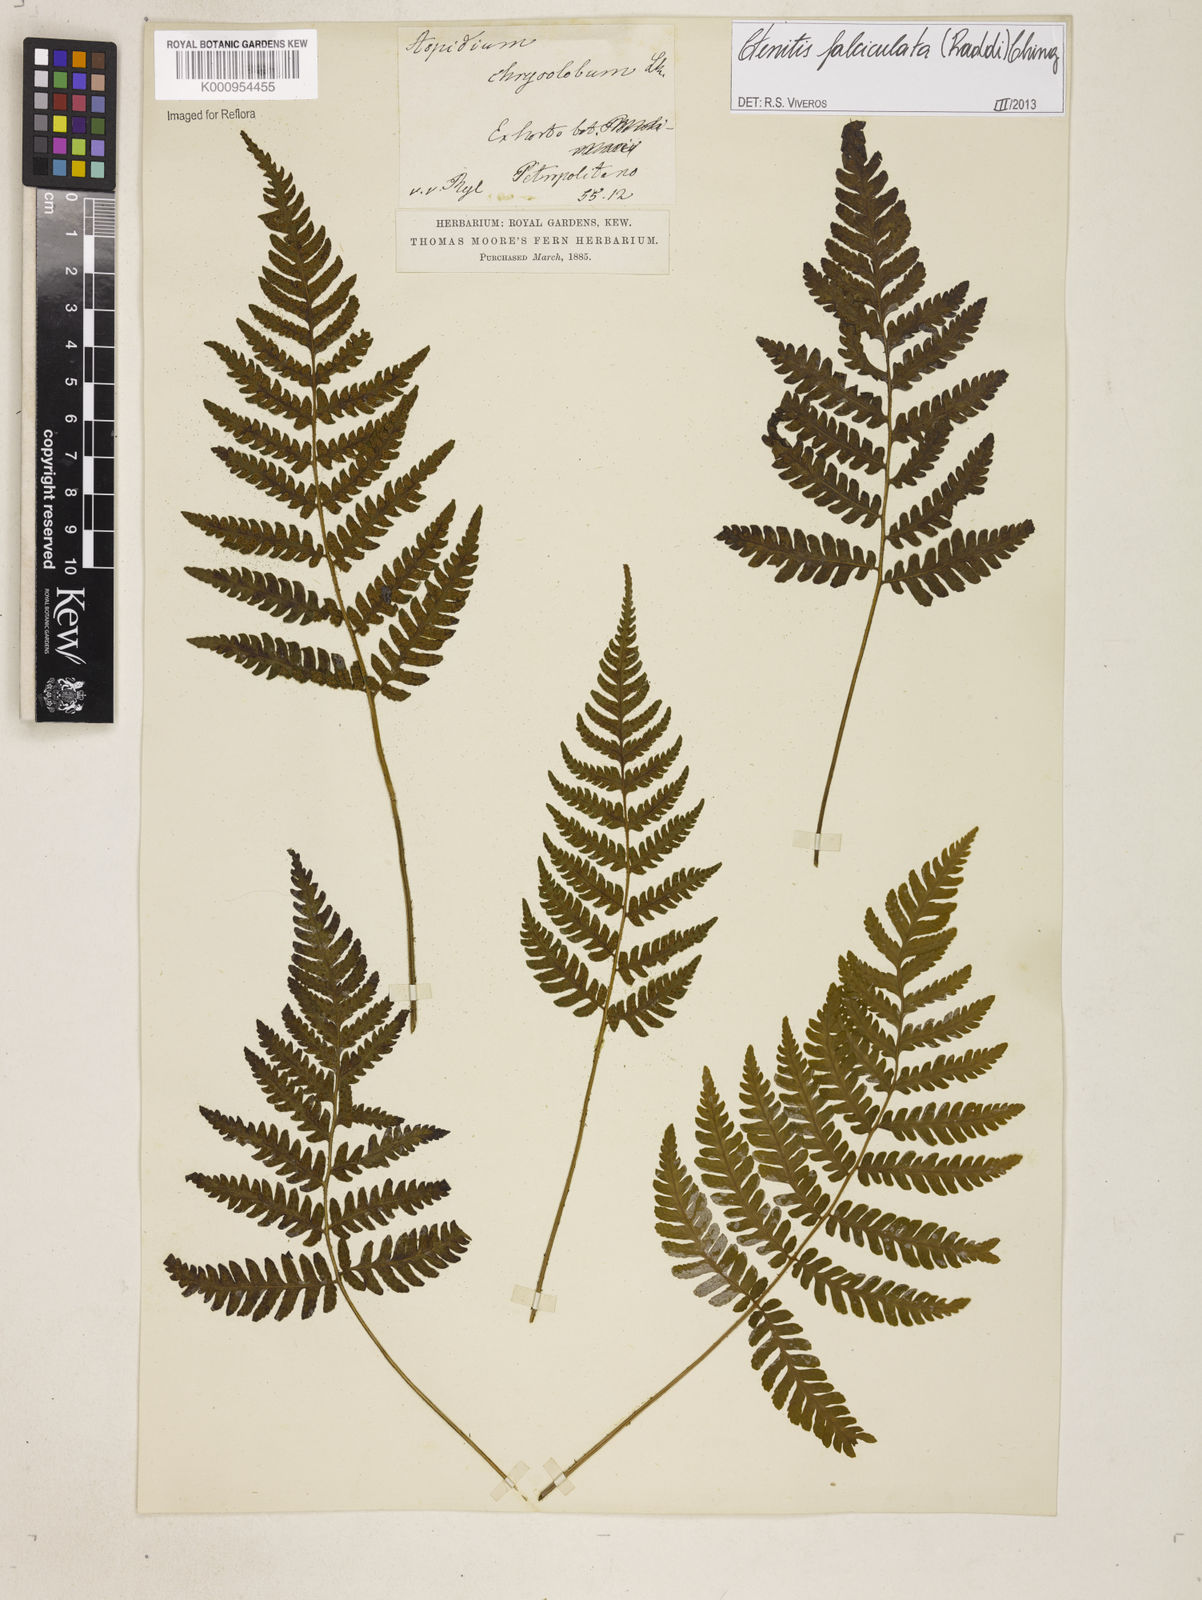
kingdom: Plantae
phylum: Tracheophyta
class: Polypodiopsida
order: Polypodiales
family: Dryopteridaceae
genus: Ctenitis
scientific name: Ctenitis falciculata
